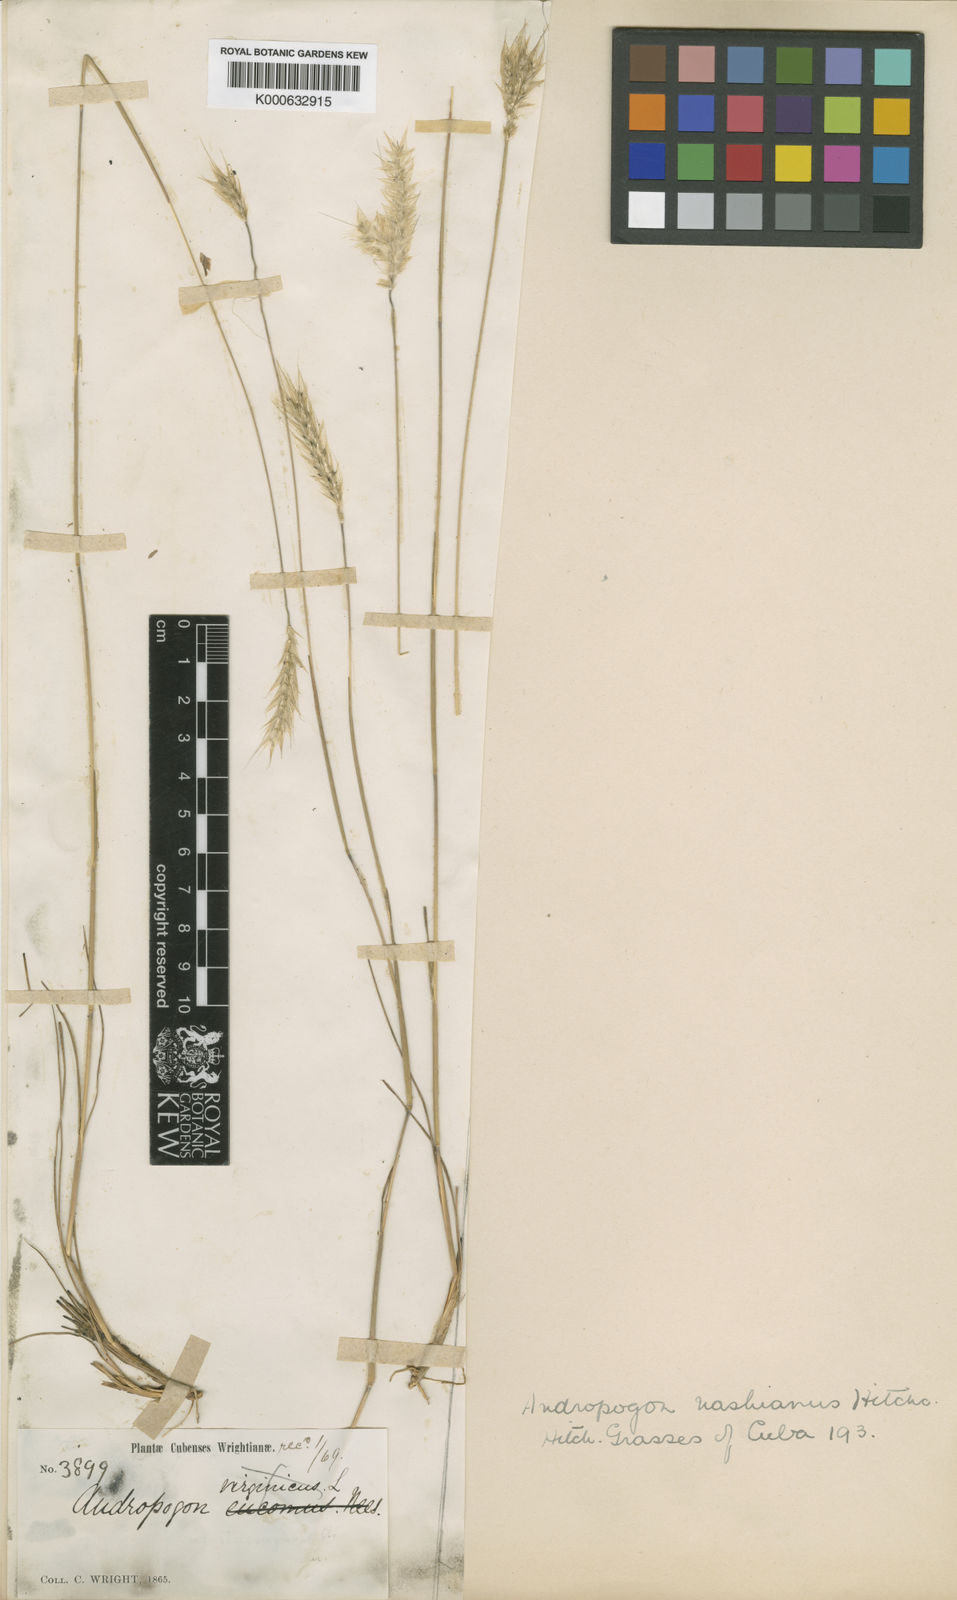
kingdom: Plantae
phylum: Tracheophyta
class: Liliopsida
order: Poales
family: Poaceae
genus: Andropogon
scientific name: Andropogon ternatus
